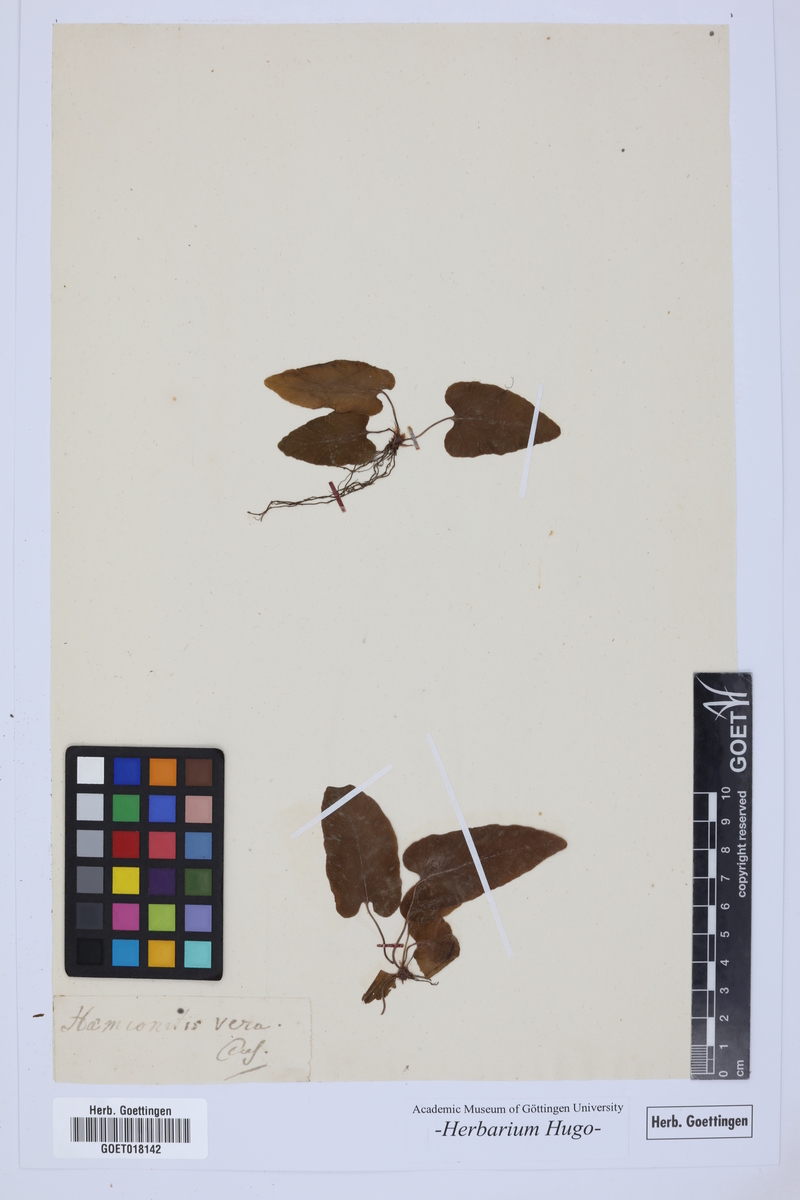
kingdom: Plantae
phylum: Tracheophyta
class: Polypodiopsida
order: Polypodiales
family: Aspleniaceae
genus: Asplenium
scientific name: Asplenium hemionitis
